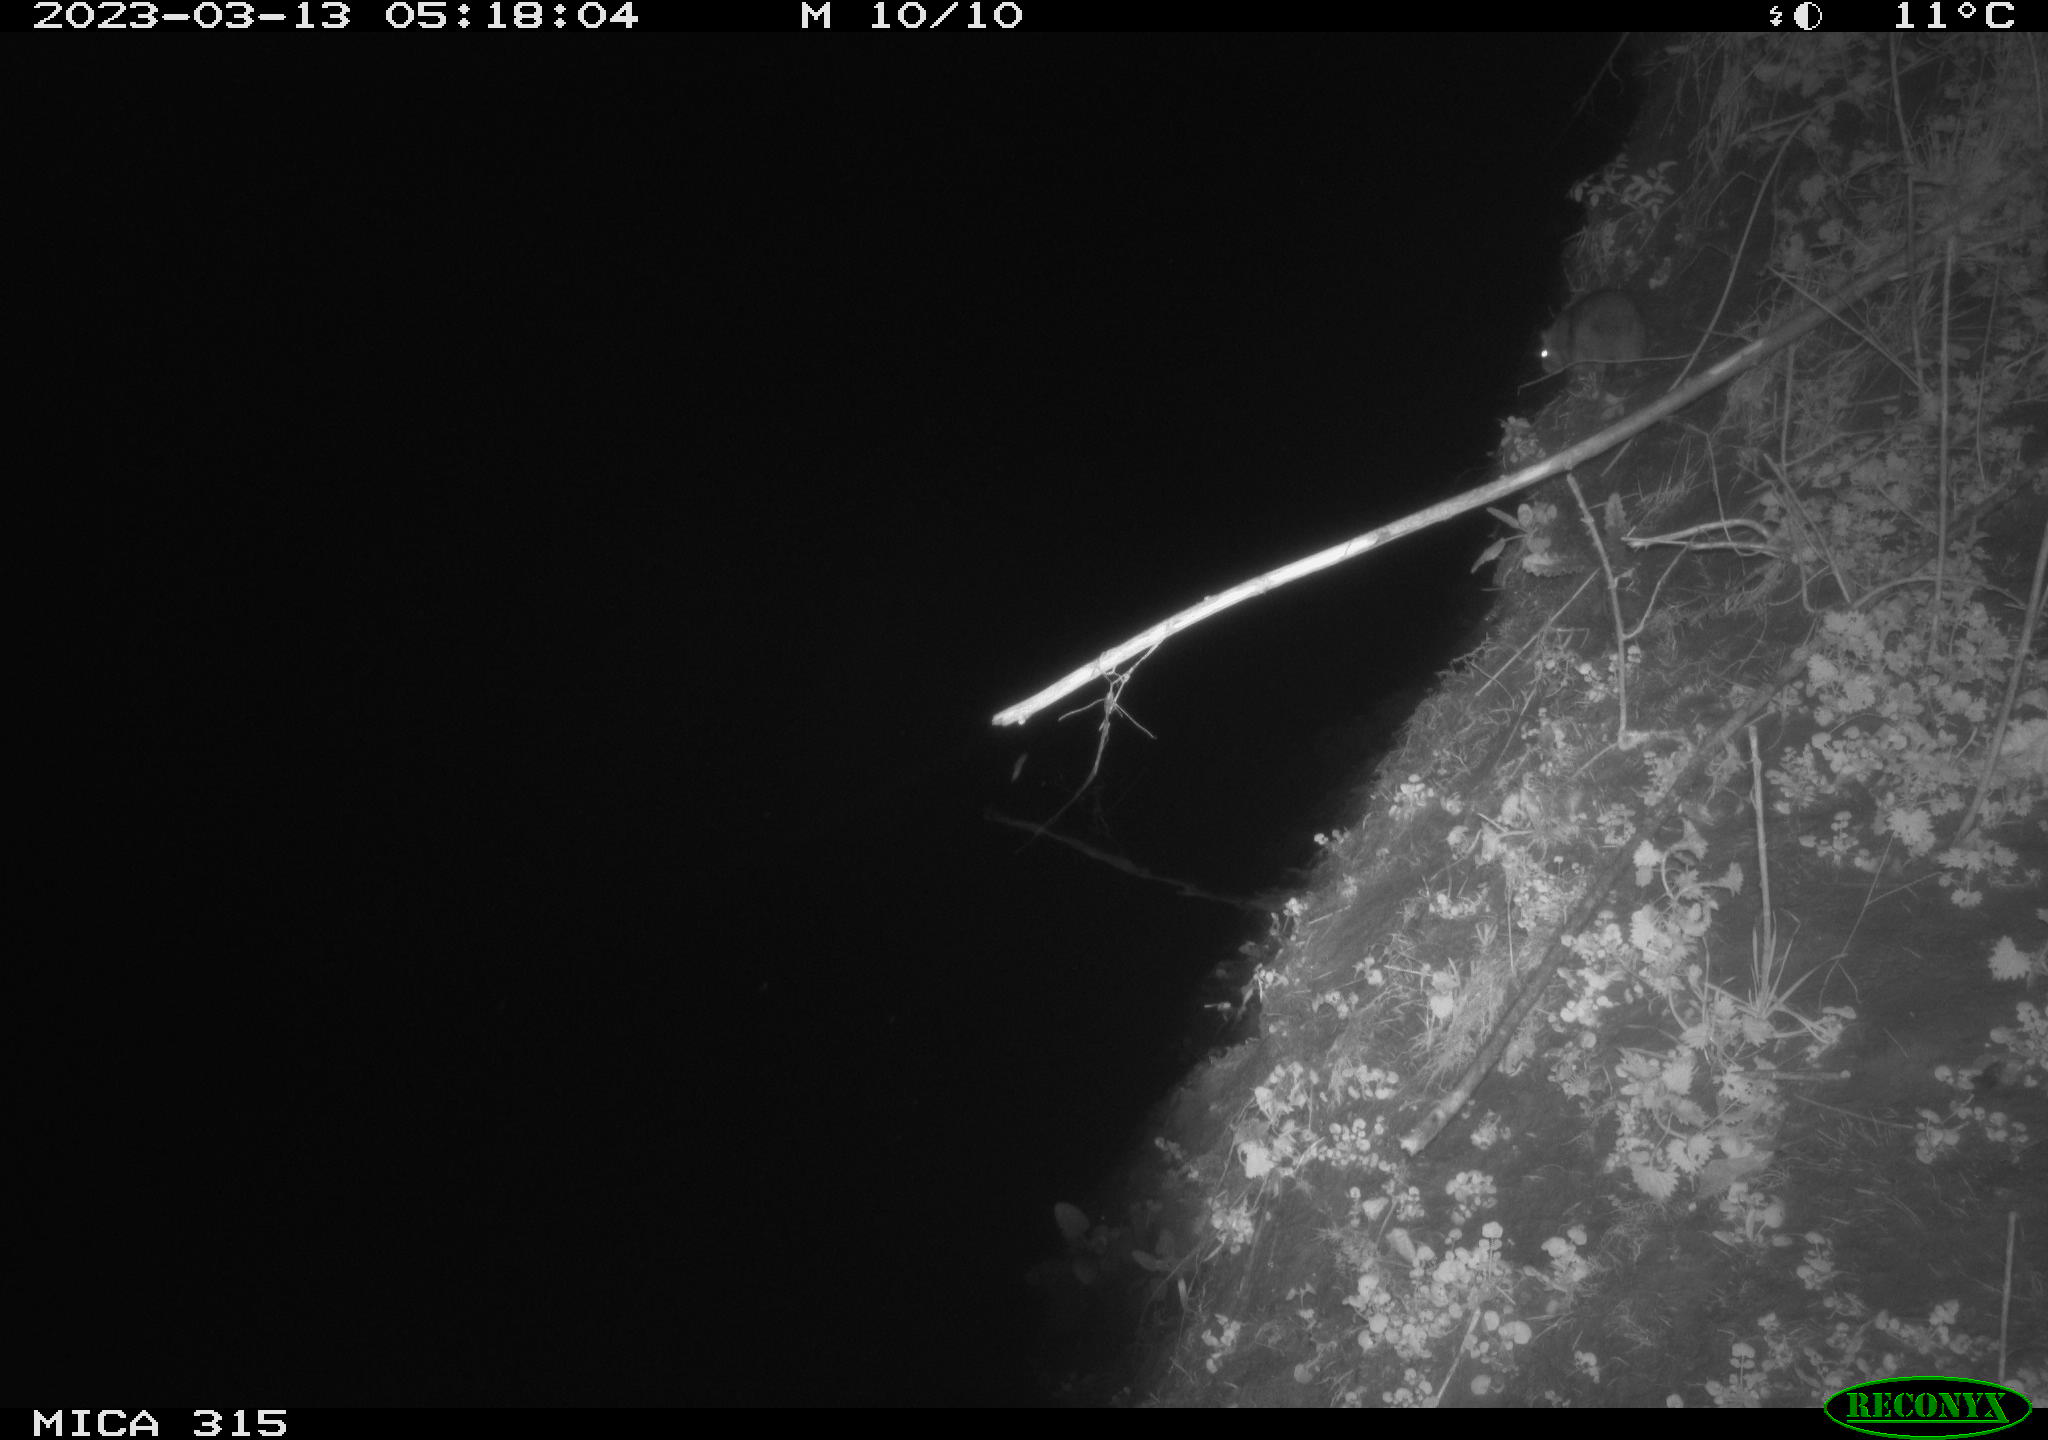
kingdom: Animalia
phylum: Chordata
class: Mammalia
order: Rodentia
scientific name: Rodentia
